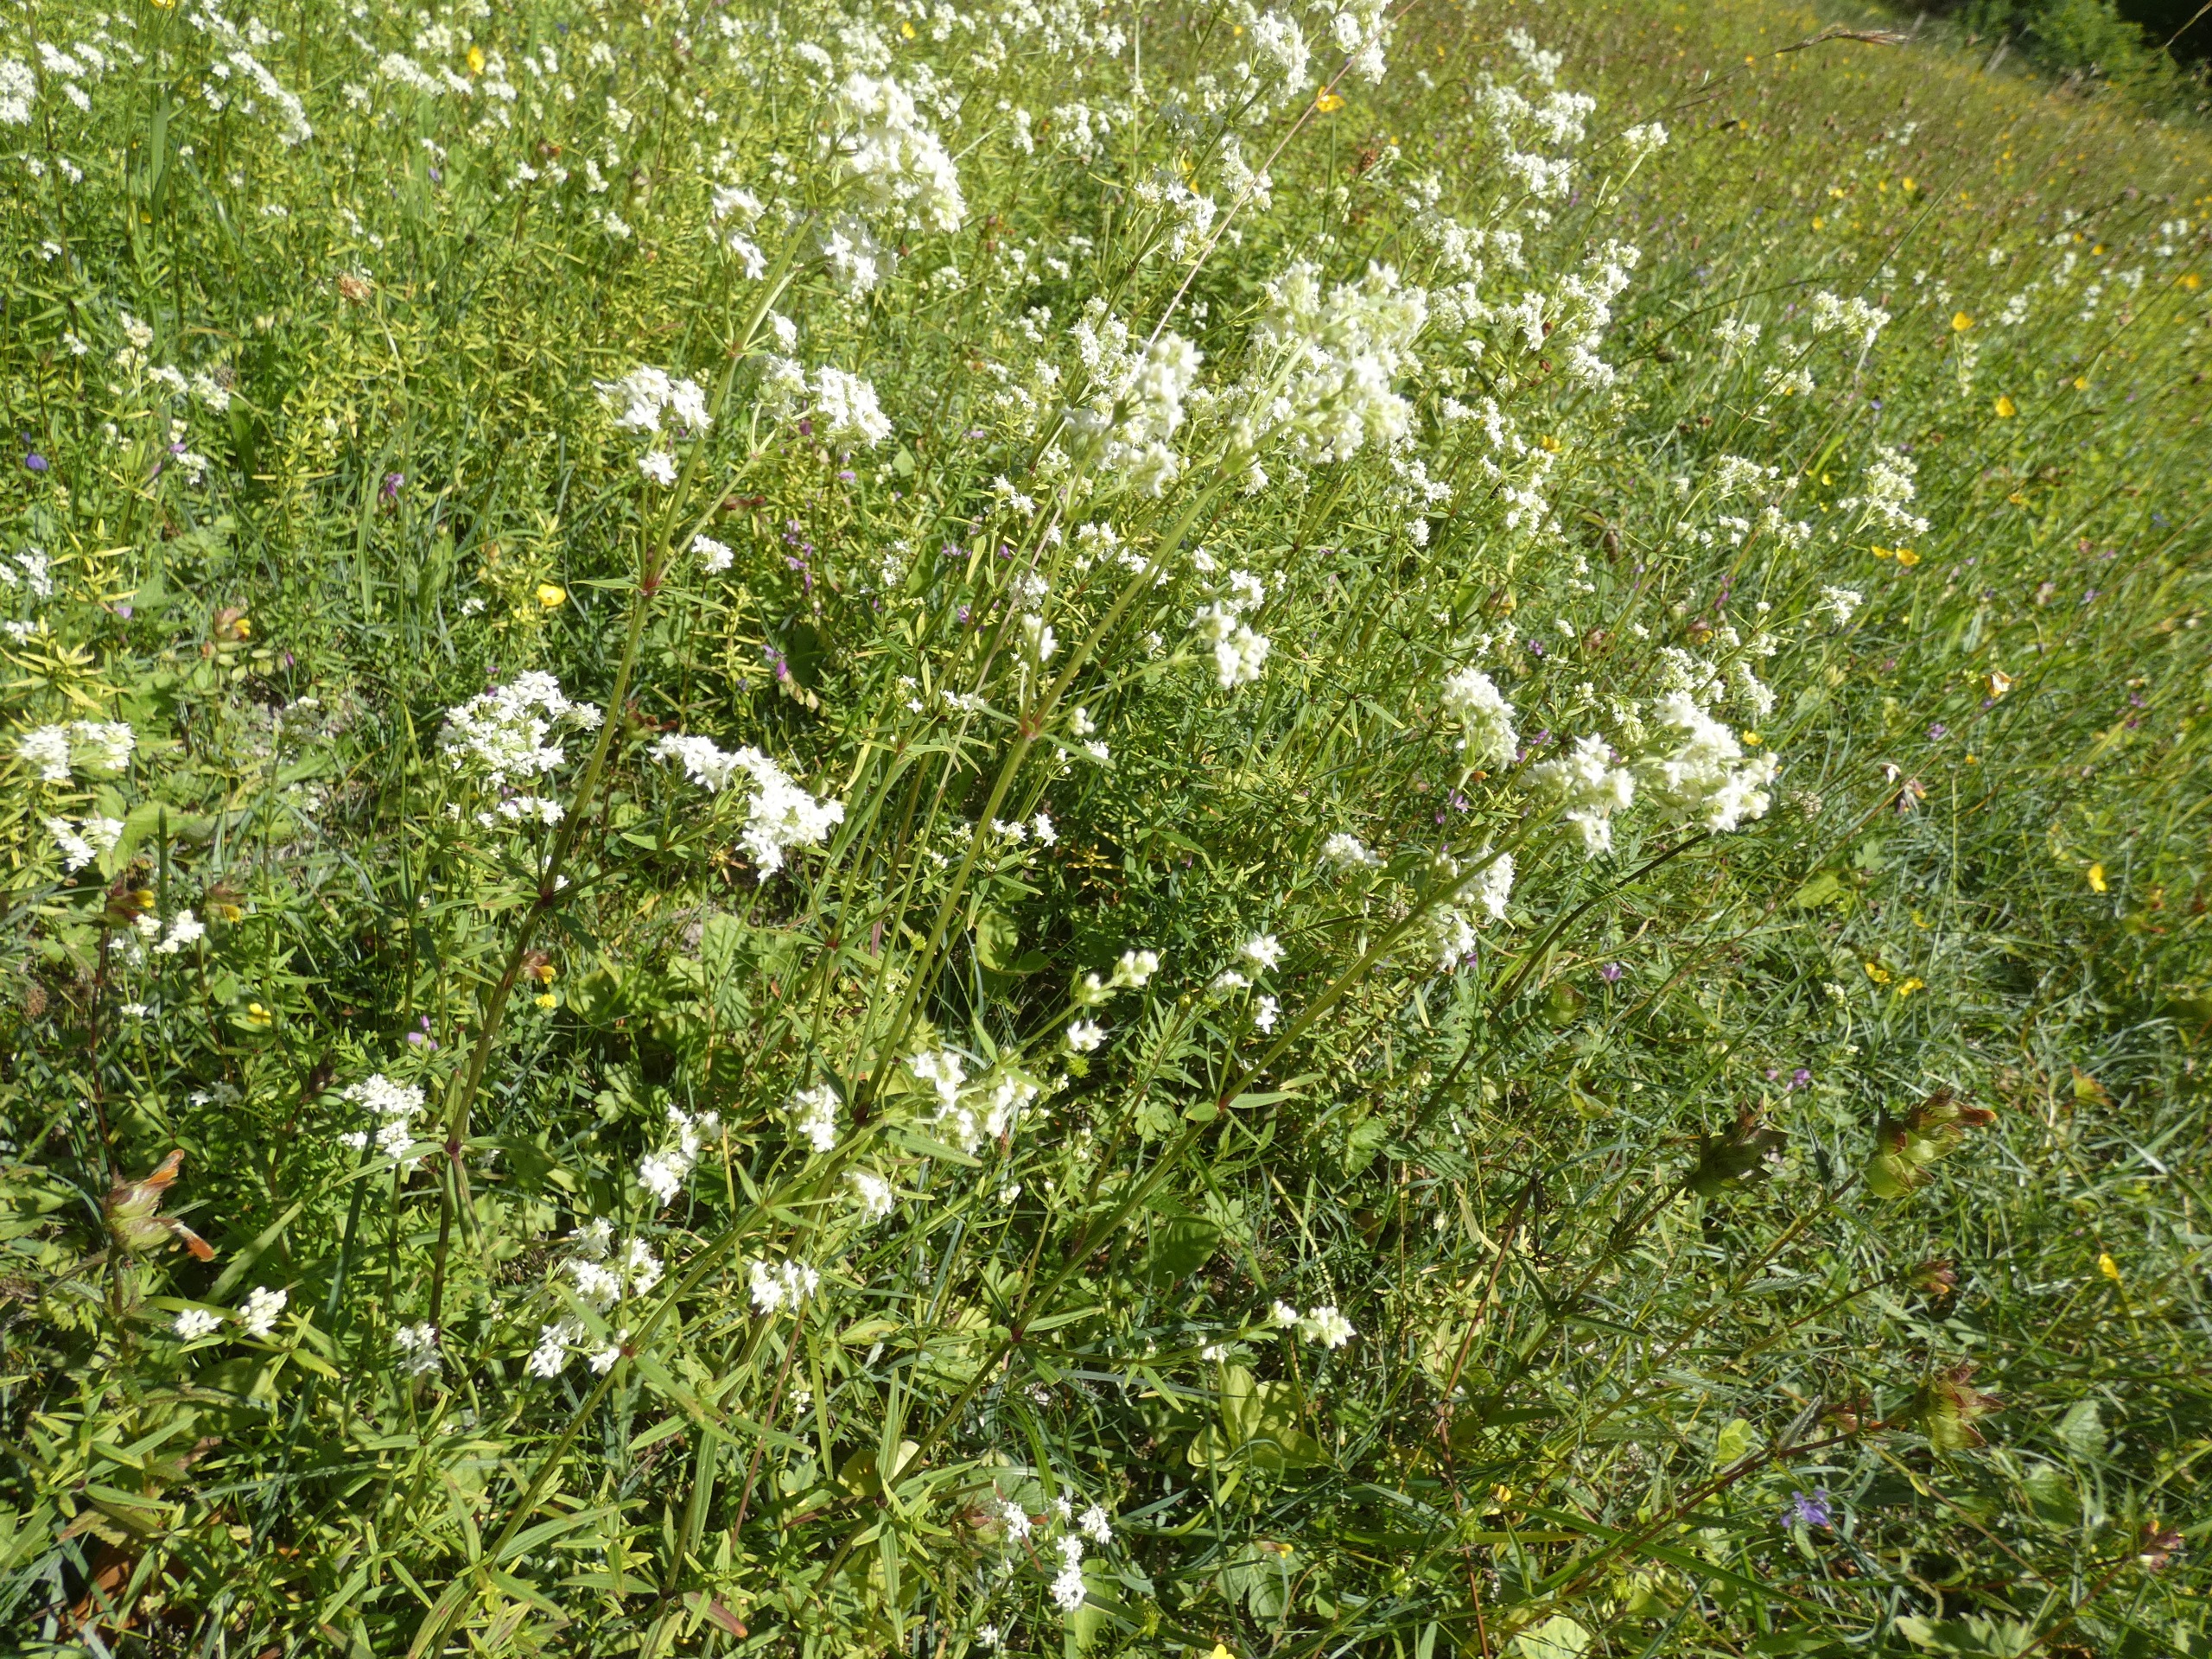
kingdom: Plantae
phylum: Tracheophyta
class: Magnoliopsida
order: Gentianales
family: Rubiaceae
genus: Galium
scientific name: Galium boreale
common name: Trenervet snerre
